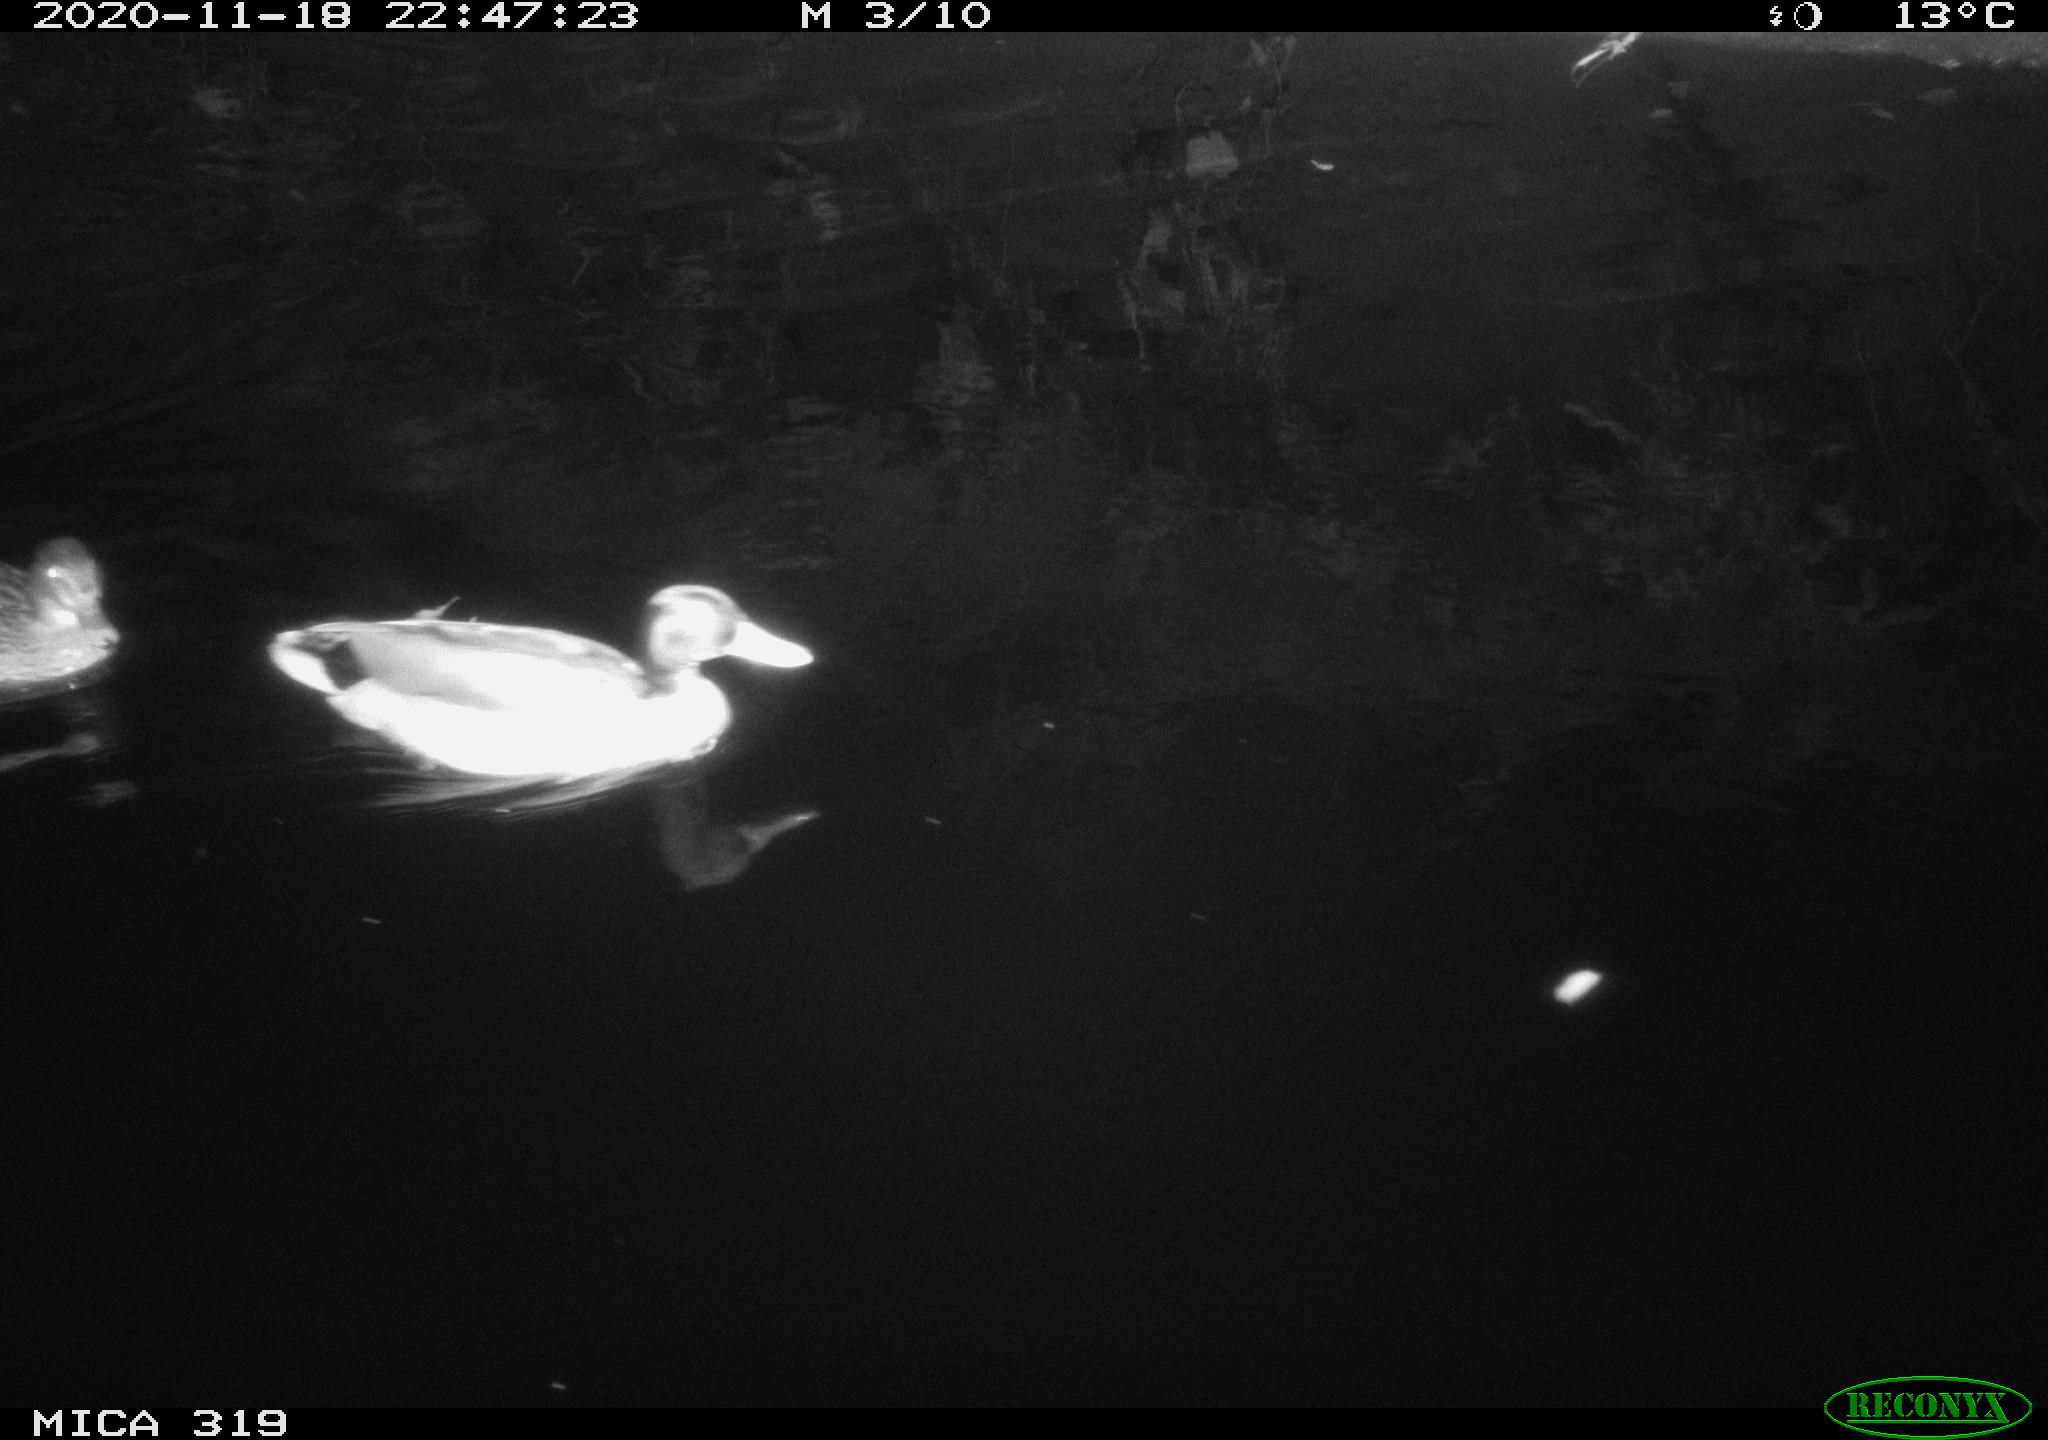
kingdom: Animalia
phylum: Chordata
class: Aves
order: Anseriformes
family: Anatidae
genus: Anas
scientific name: Anas platyrhynchos
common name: Mallard
